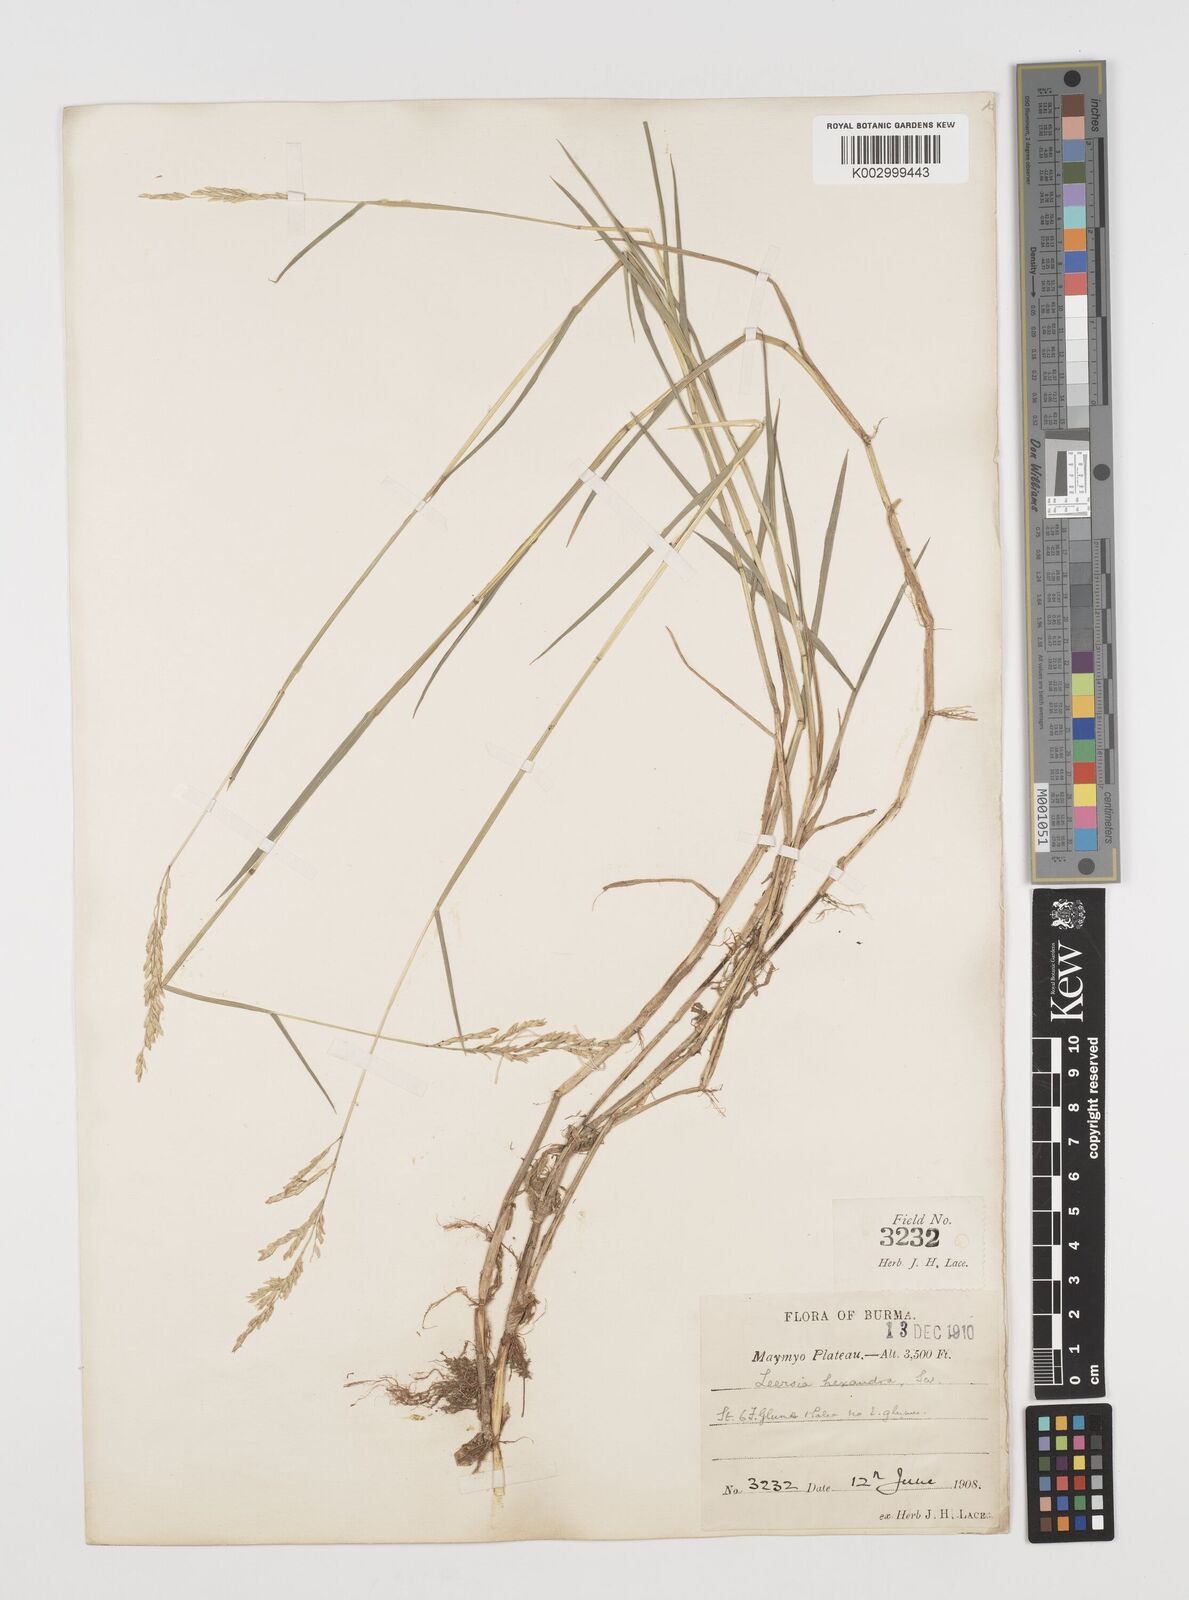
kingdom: Plantae
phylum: Tracheophyta
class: Liliopsida
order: Poales
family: Poaceae
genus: Leersia
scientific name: Leersia hexandra
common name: Southern cut grass
